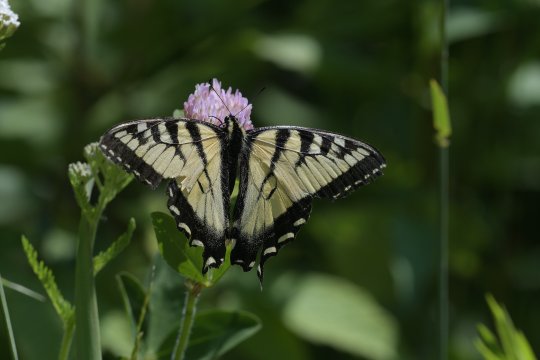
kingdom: Animalia
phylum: Arthropoda
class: Insecta
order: Lepidoptera
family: Papilionidae
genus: Pterourus
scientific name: Pterourus canadensis
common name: Canadian Tiger Swallowtail
